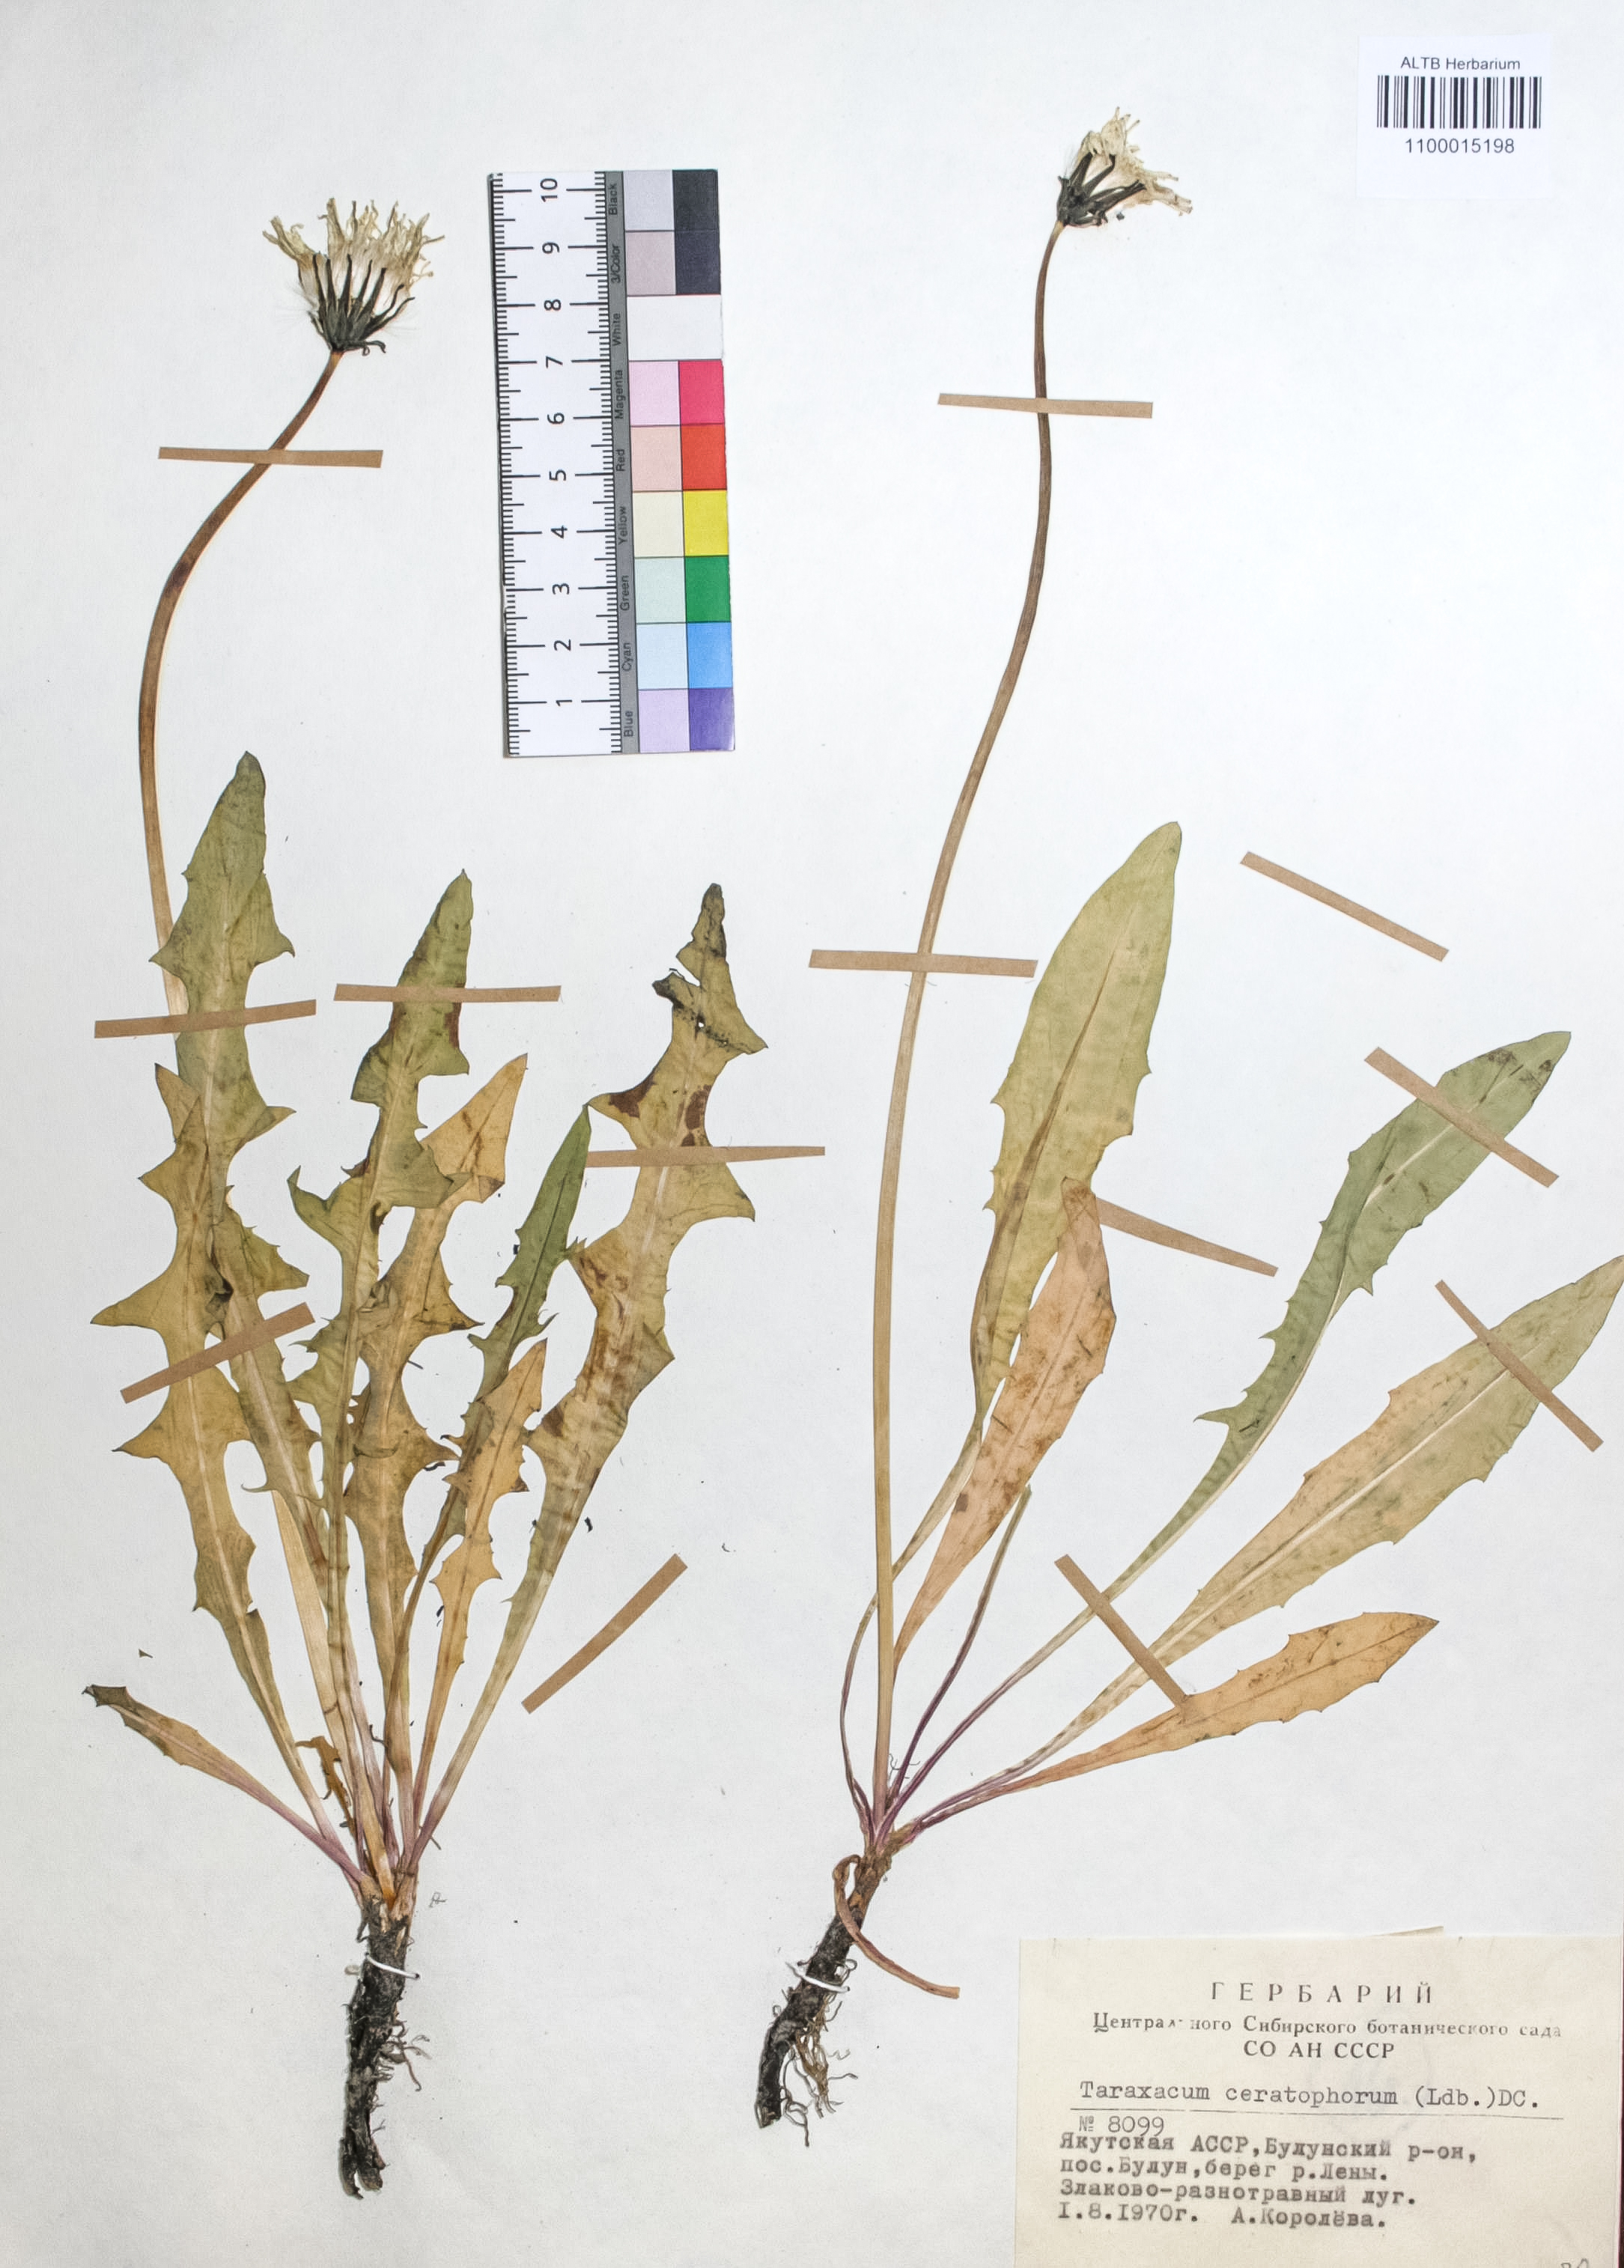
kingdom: Plantae
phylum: Tracheophyta
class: Magnoliopsida
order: Asterales
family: Asteraceae
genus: Taraxacum
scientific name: Taraxacum ceratophorum
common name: Horn-bearing dandelion
